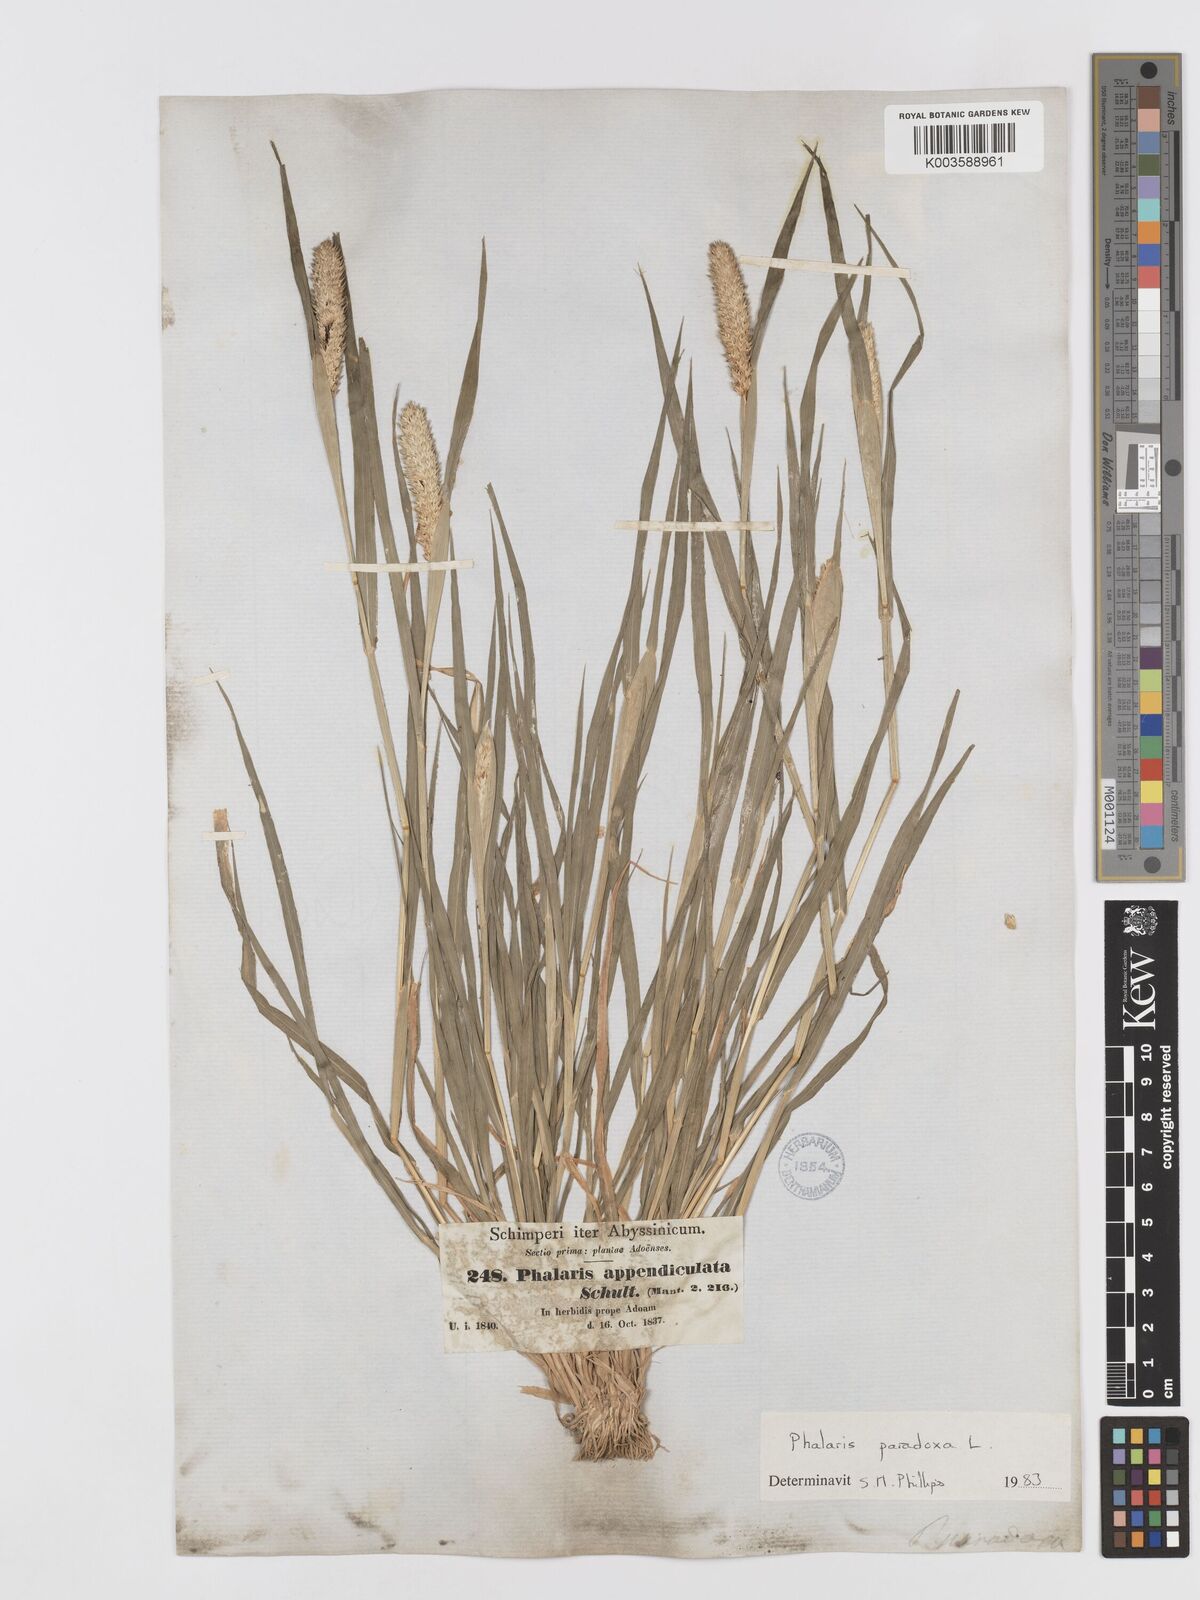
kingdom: Plantae
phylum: Tracheophyta
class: Liliopsida
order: Poales
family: Poaceae
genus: Phalaris
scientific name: Phalaris paradoxa
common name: Awned canary-grass
